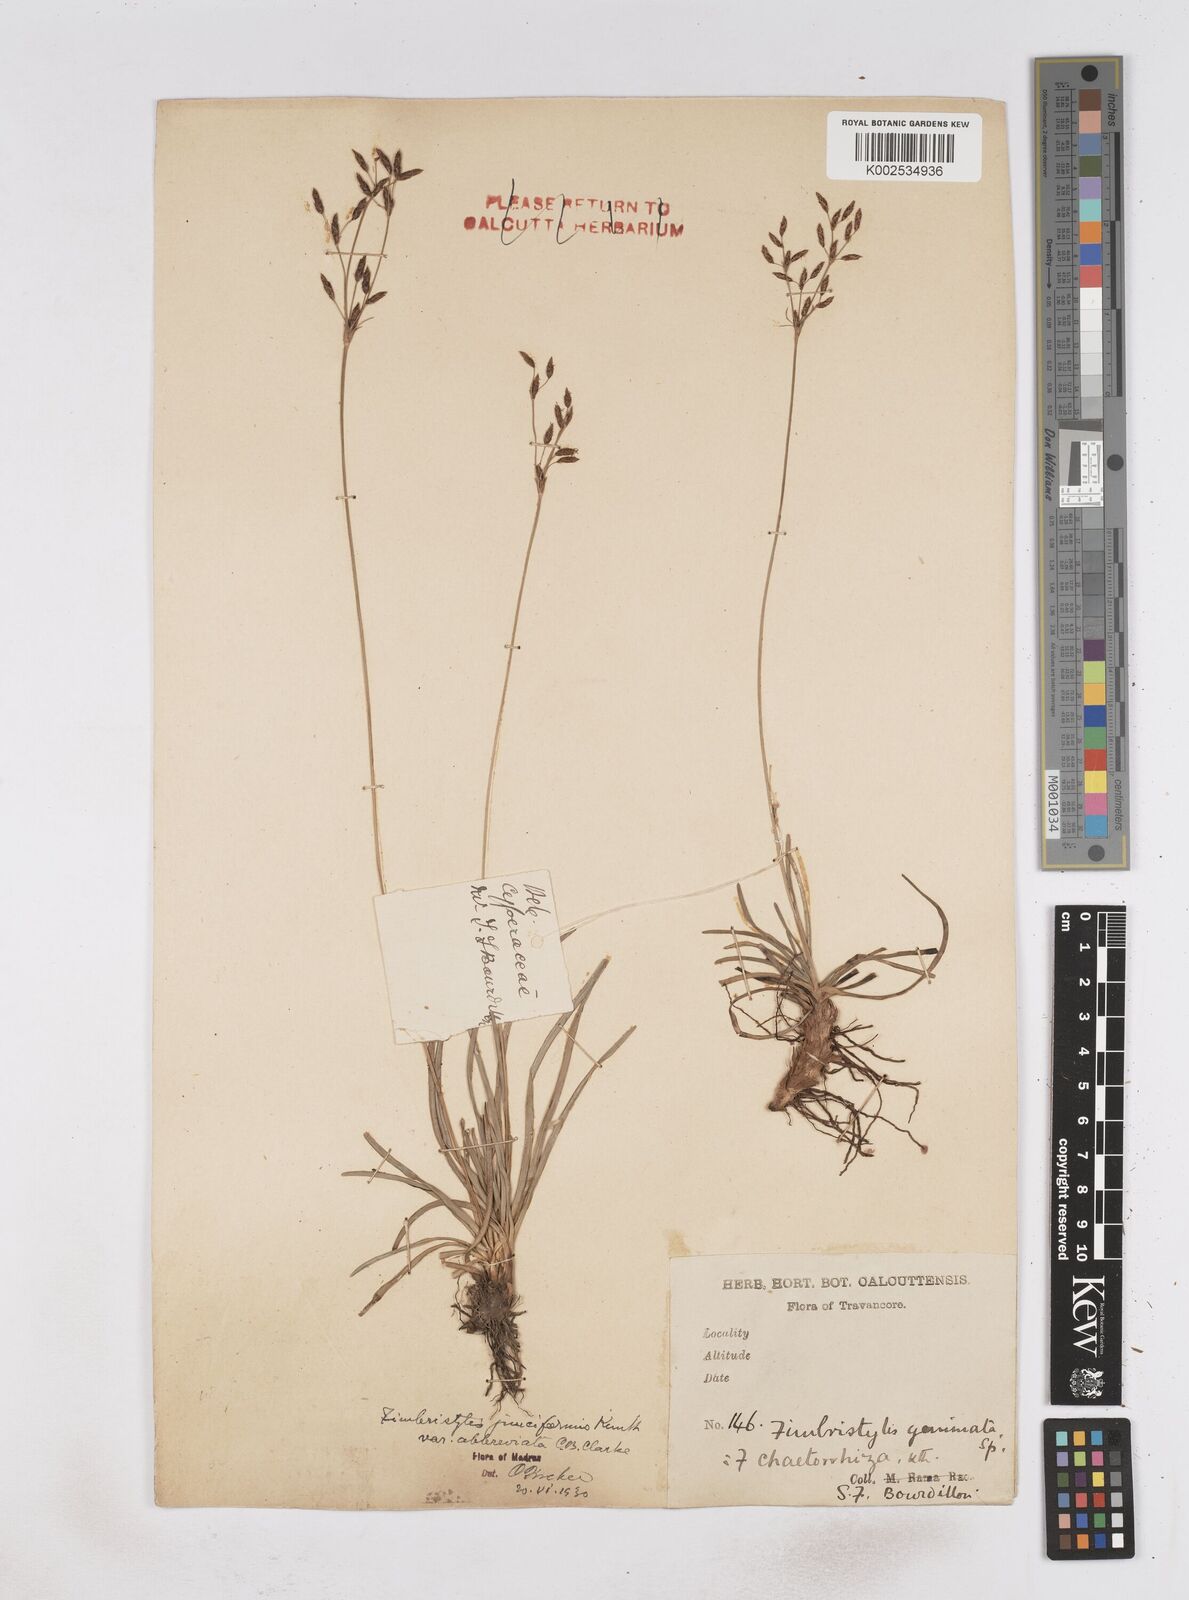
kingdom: Plantae
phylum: Tracheophyta
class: Liliopsida
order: Poales
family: Cyperaceae
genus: Fimbristylis
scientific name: Fimbristylis falcata
